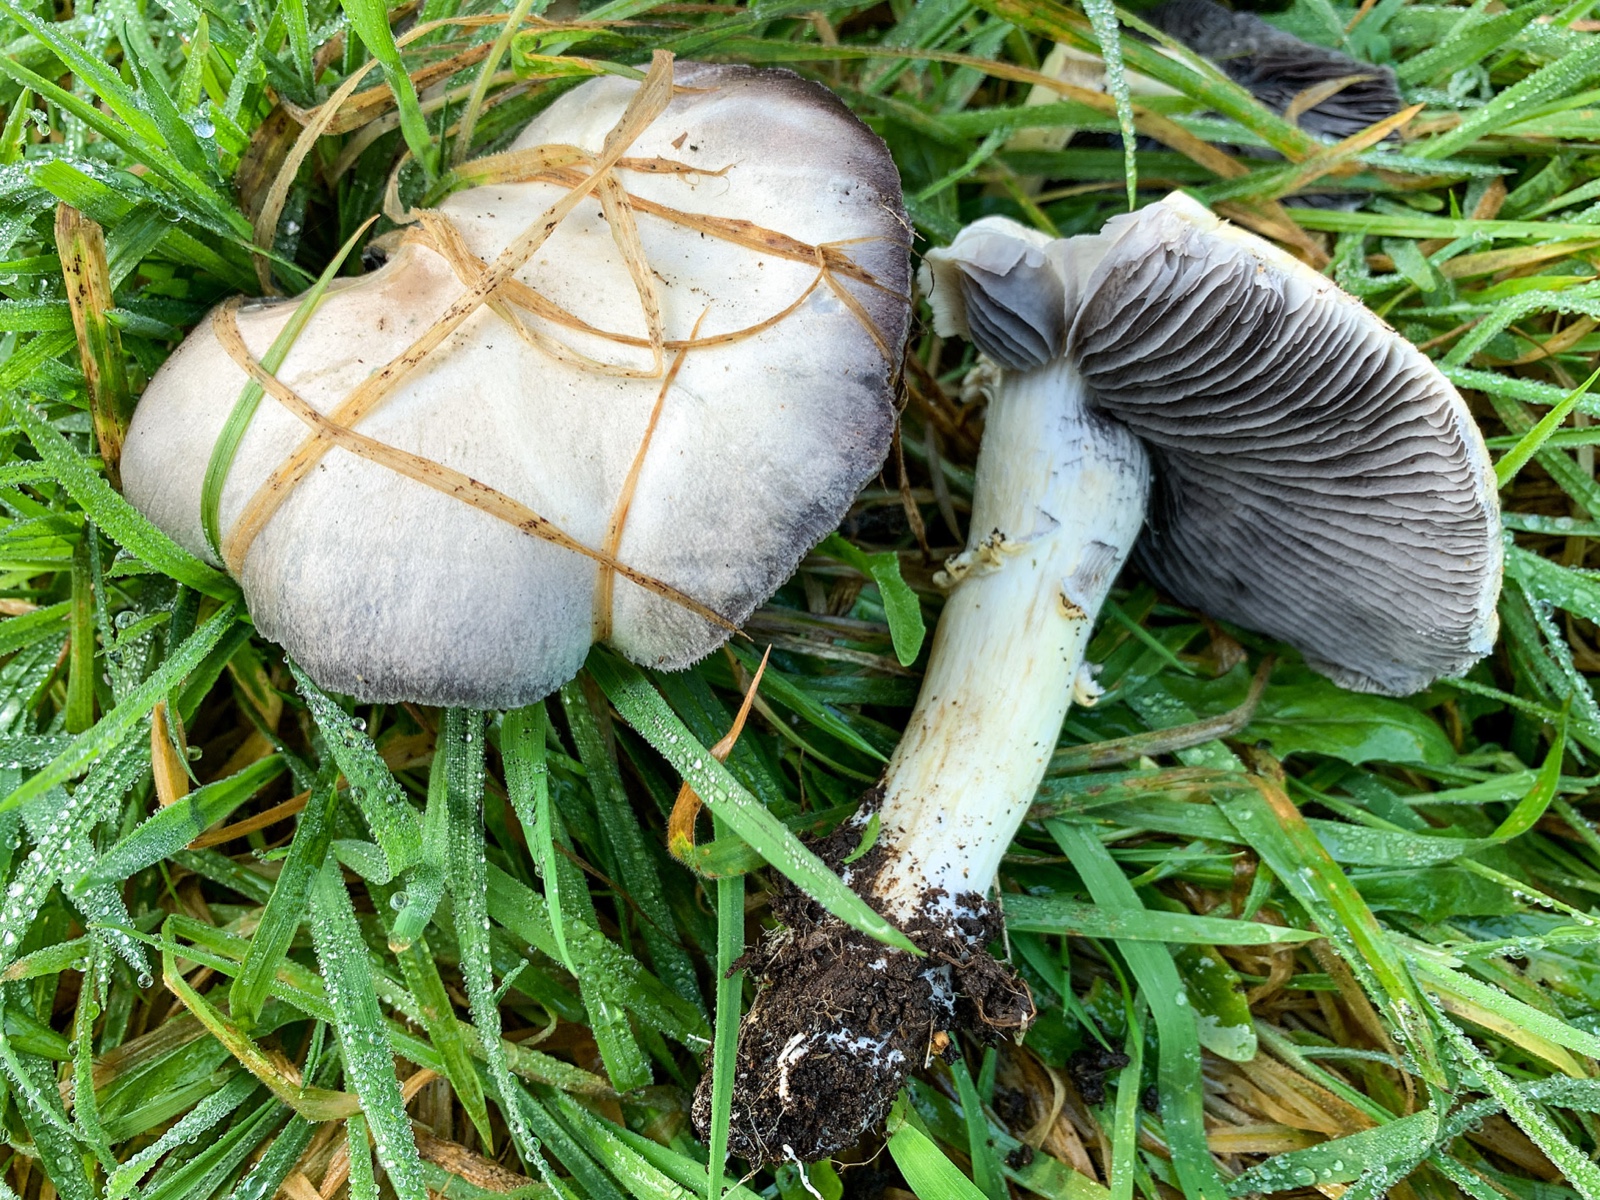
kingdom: Fungi
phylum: Basidiomycota
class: Agaricomycetes
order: Agaricales
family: Strophariaceae
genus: Stropharia
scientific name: Stropharia rugosoannulata
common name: rødbrun bredblad
